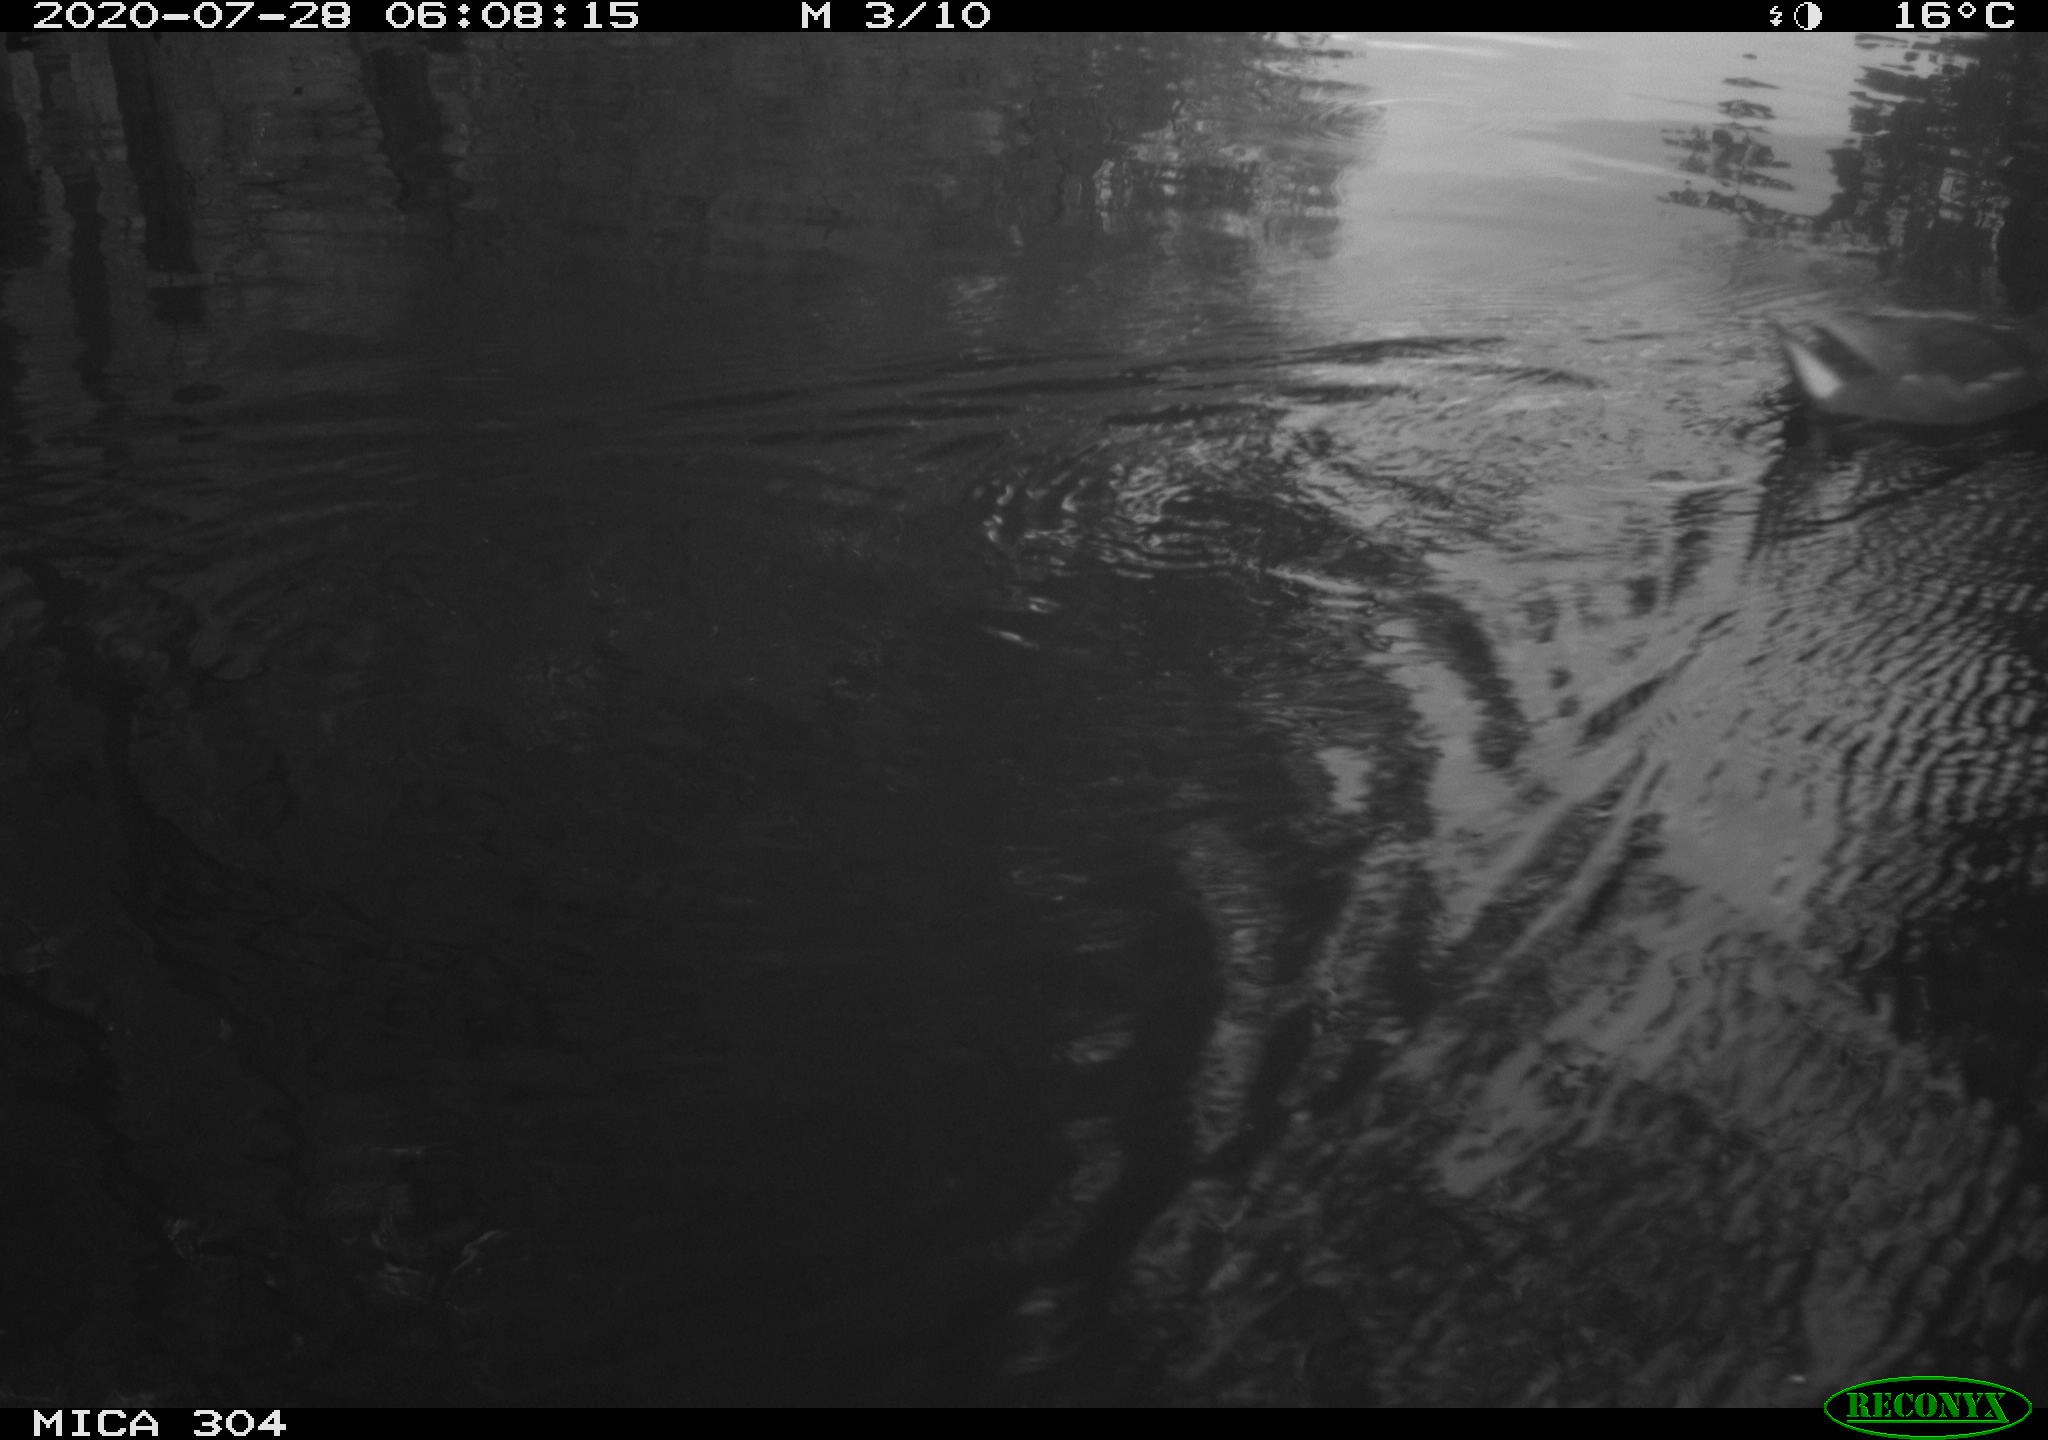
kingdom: Animalia
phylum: Chordata
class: Aves
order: Gruiformes
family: Rallidae
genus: Gallinula
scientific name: Gallinula chloropus
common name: Common moorhen
